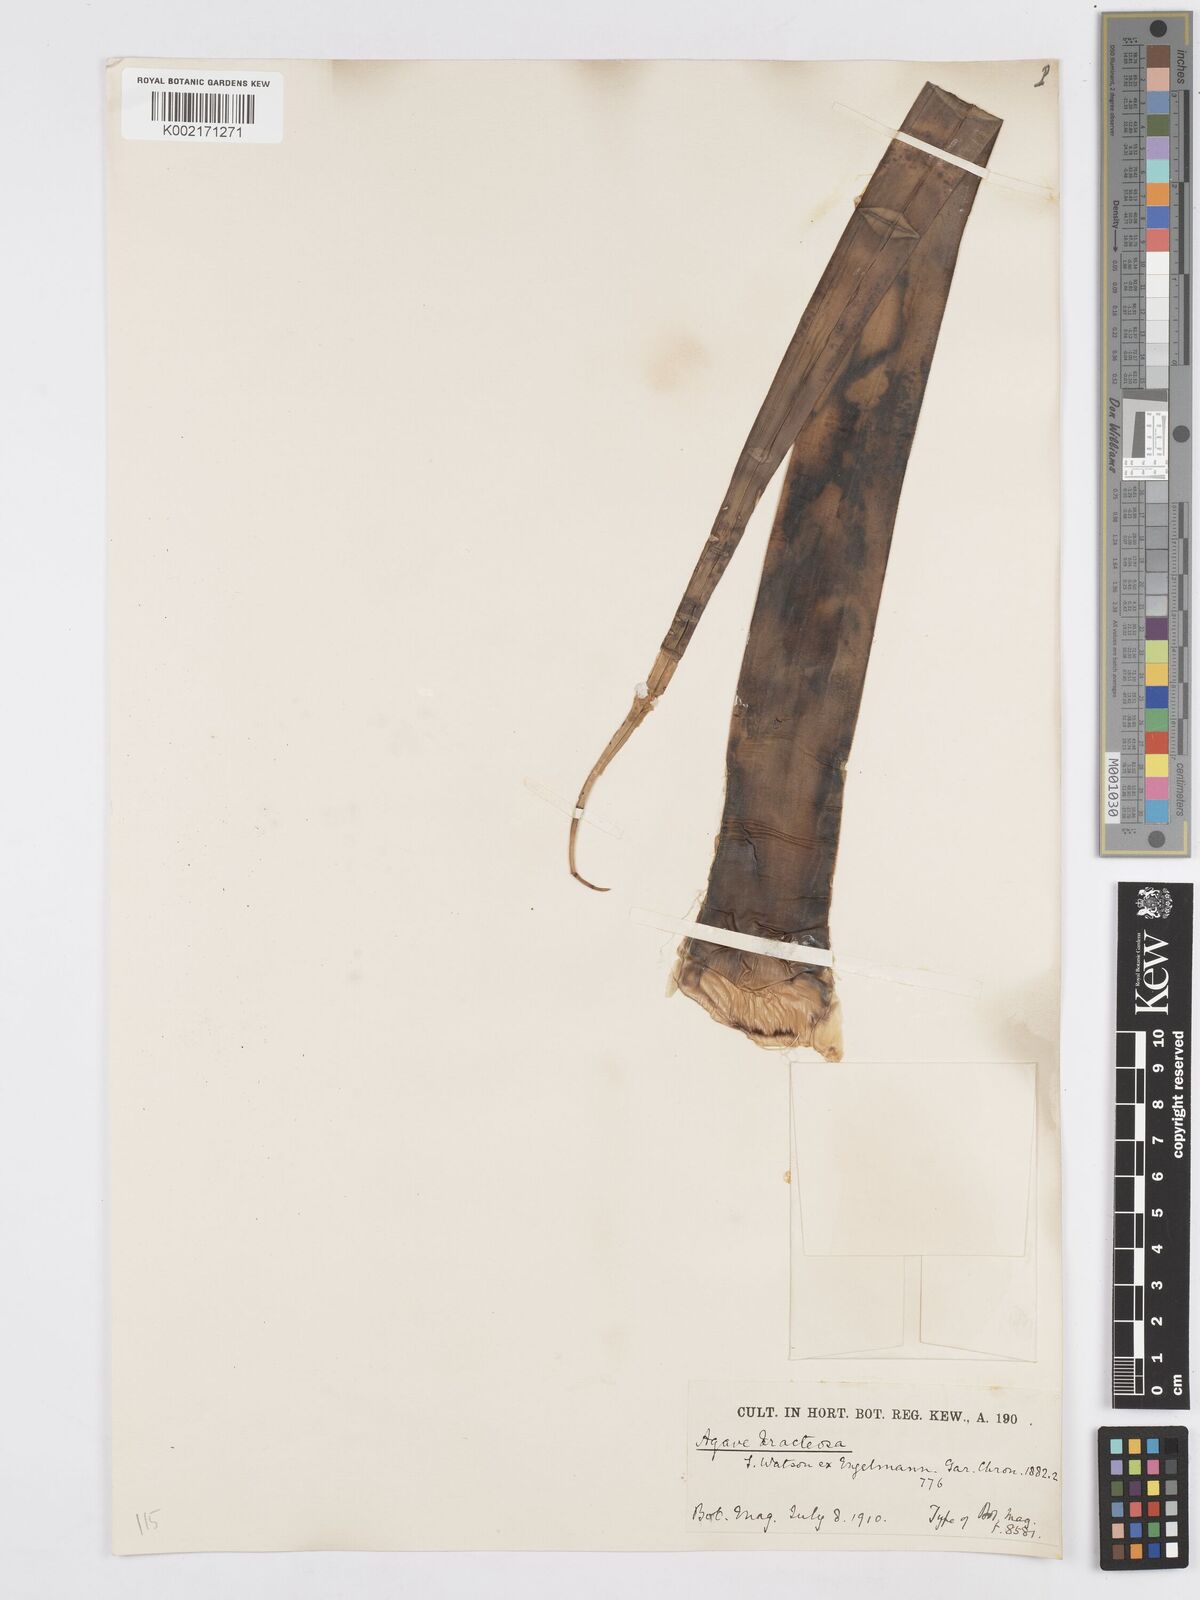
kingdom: Plantae
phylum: Tracheophyta
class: Liliopsida
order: Asparagales
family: Asparagaceae
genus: Agave
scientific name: Agave bracteosa
